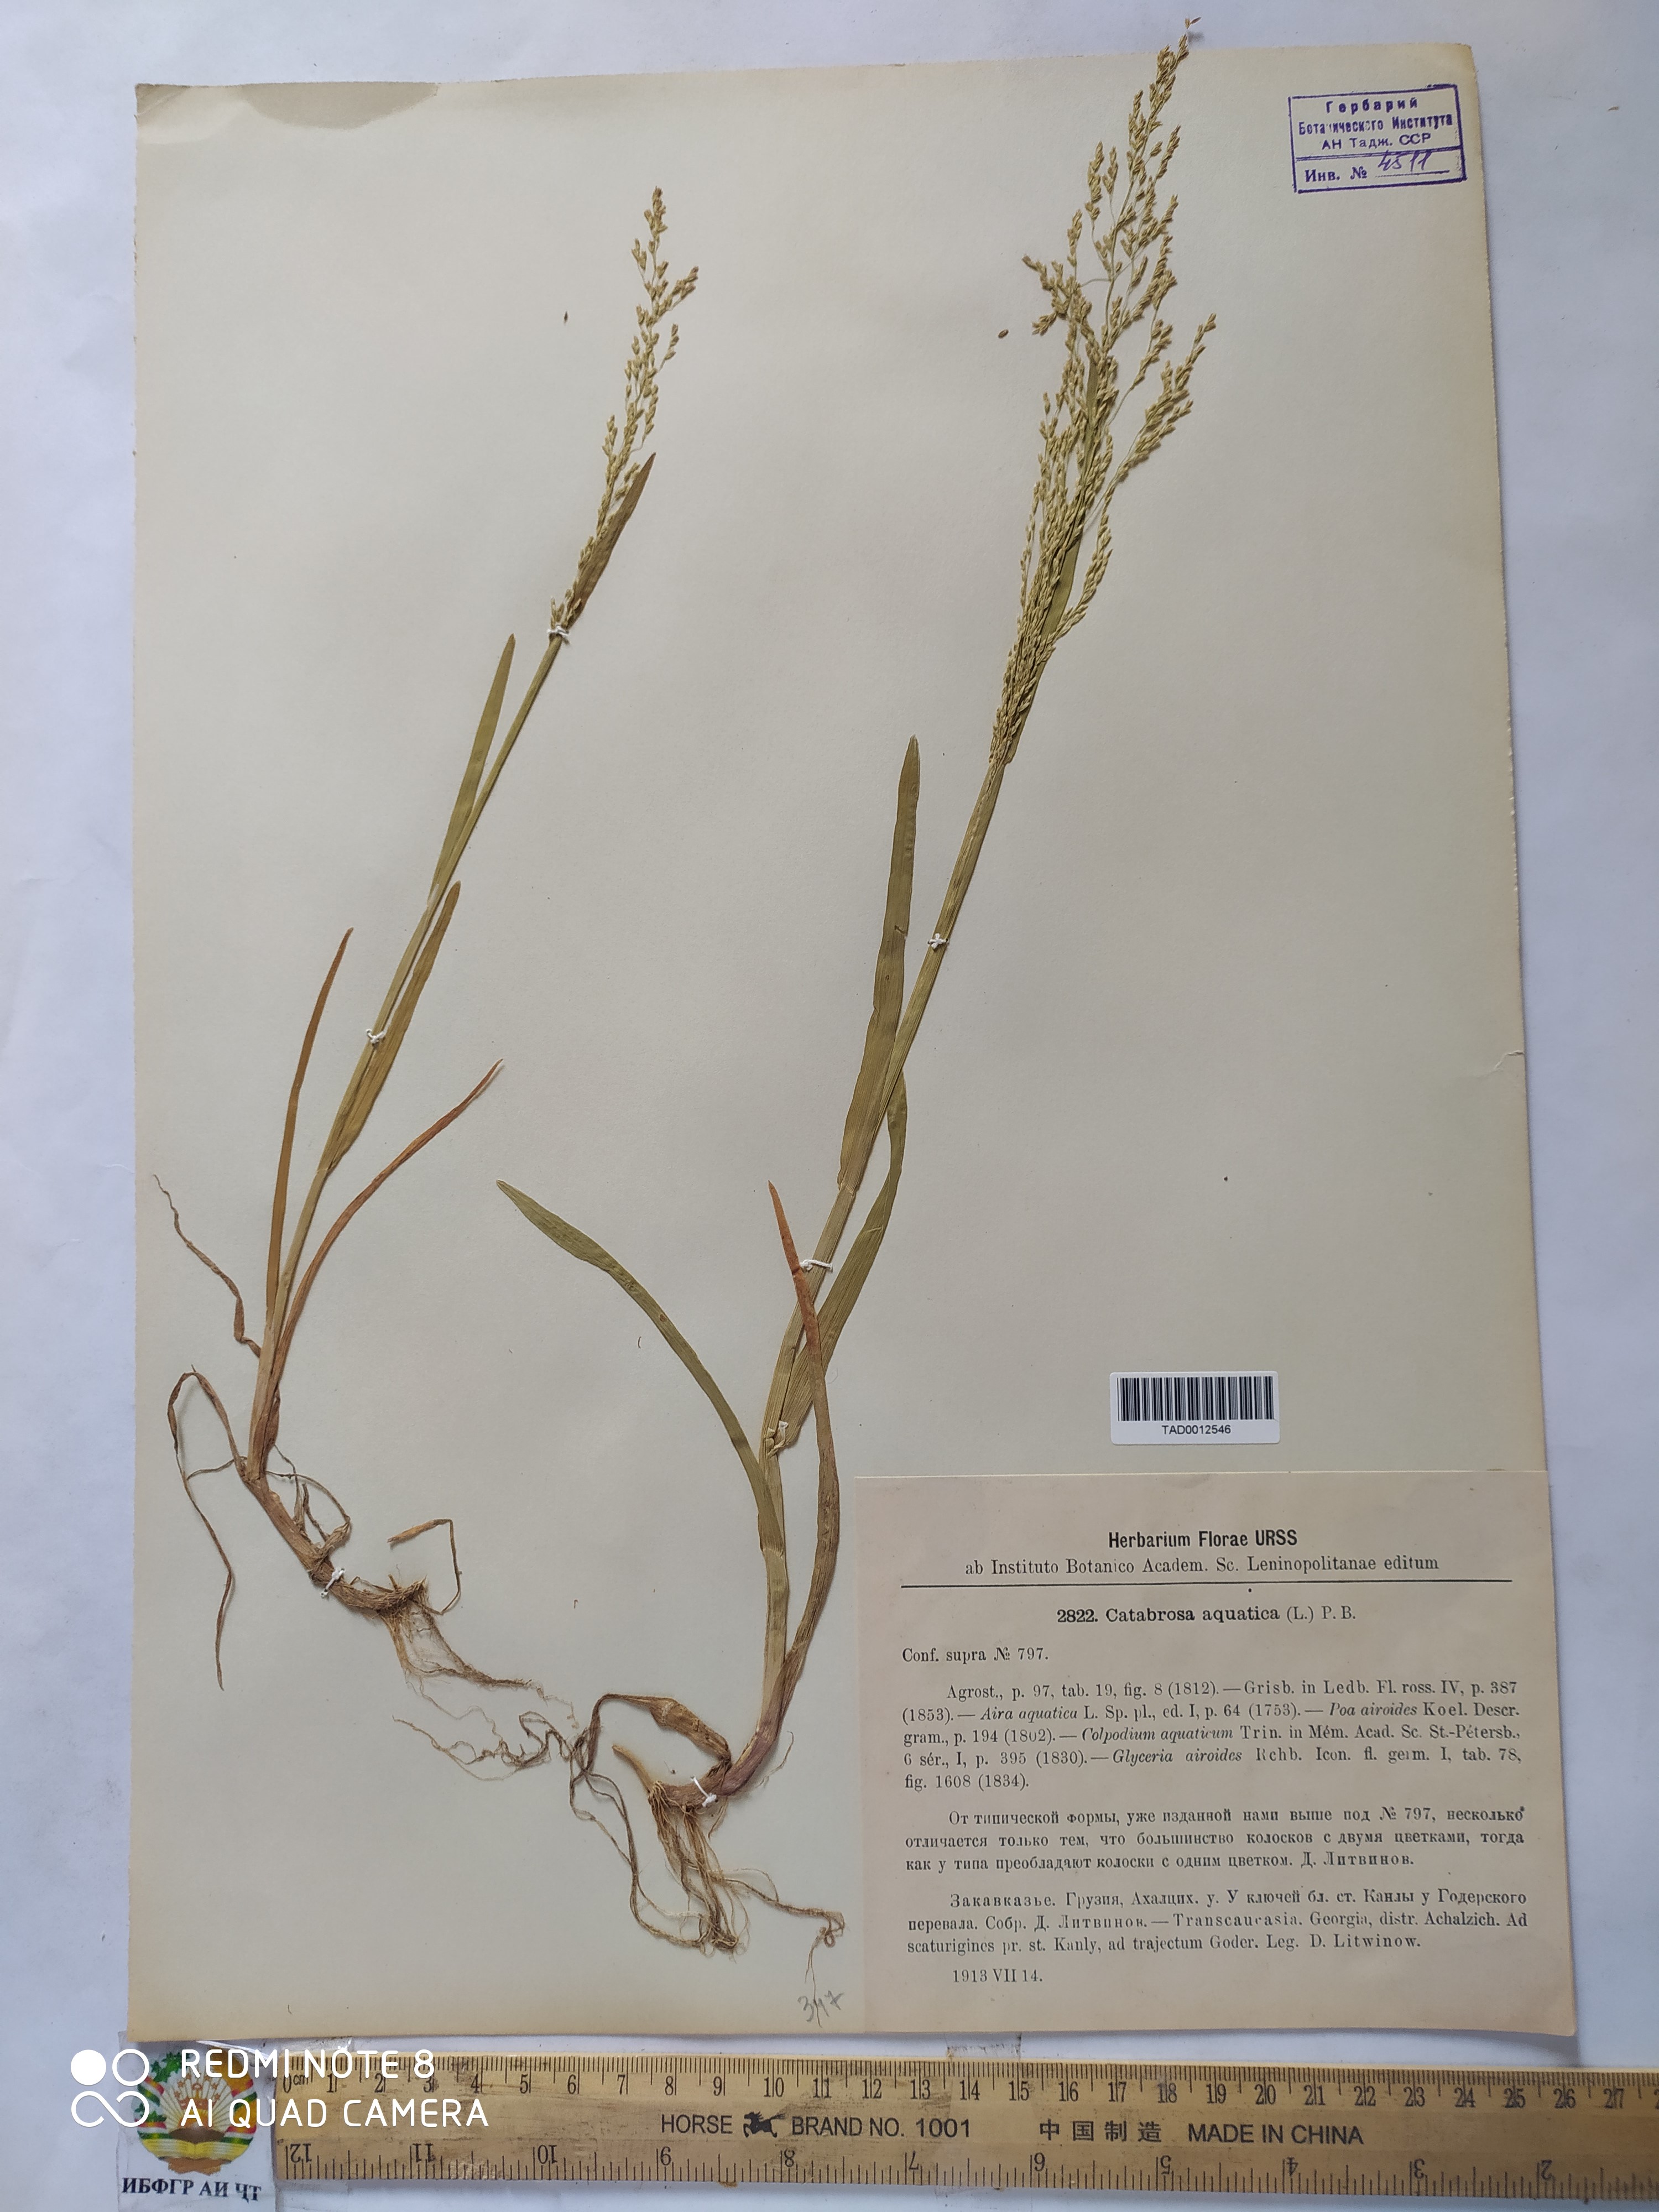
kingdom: Plantae
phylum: Tracheophyta
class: Liliopsida
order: Poales
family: Poaceae
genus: Catabrosa
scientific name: Catabrosa aquatica
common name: Whorl-grass
